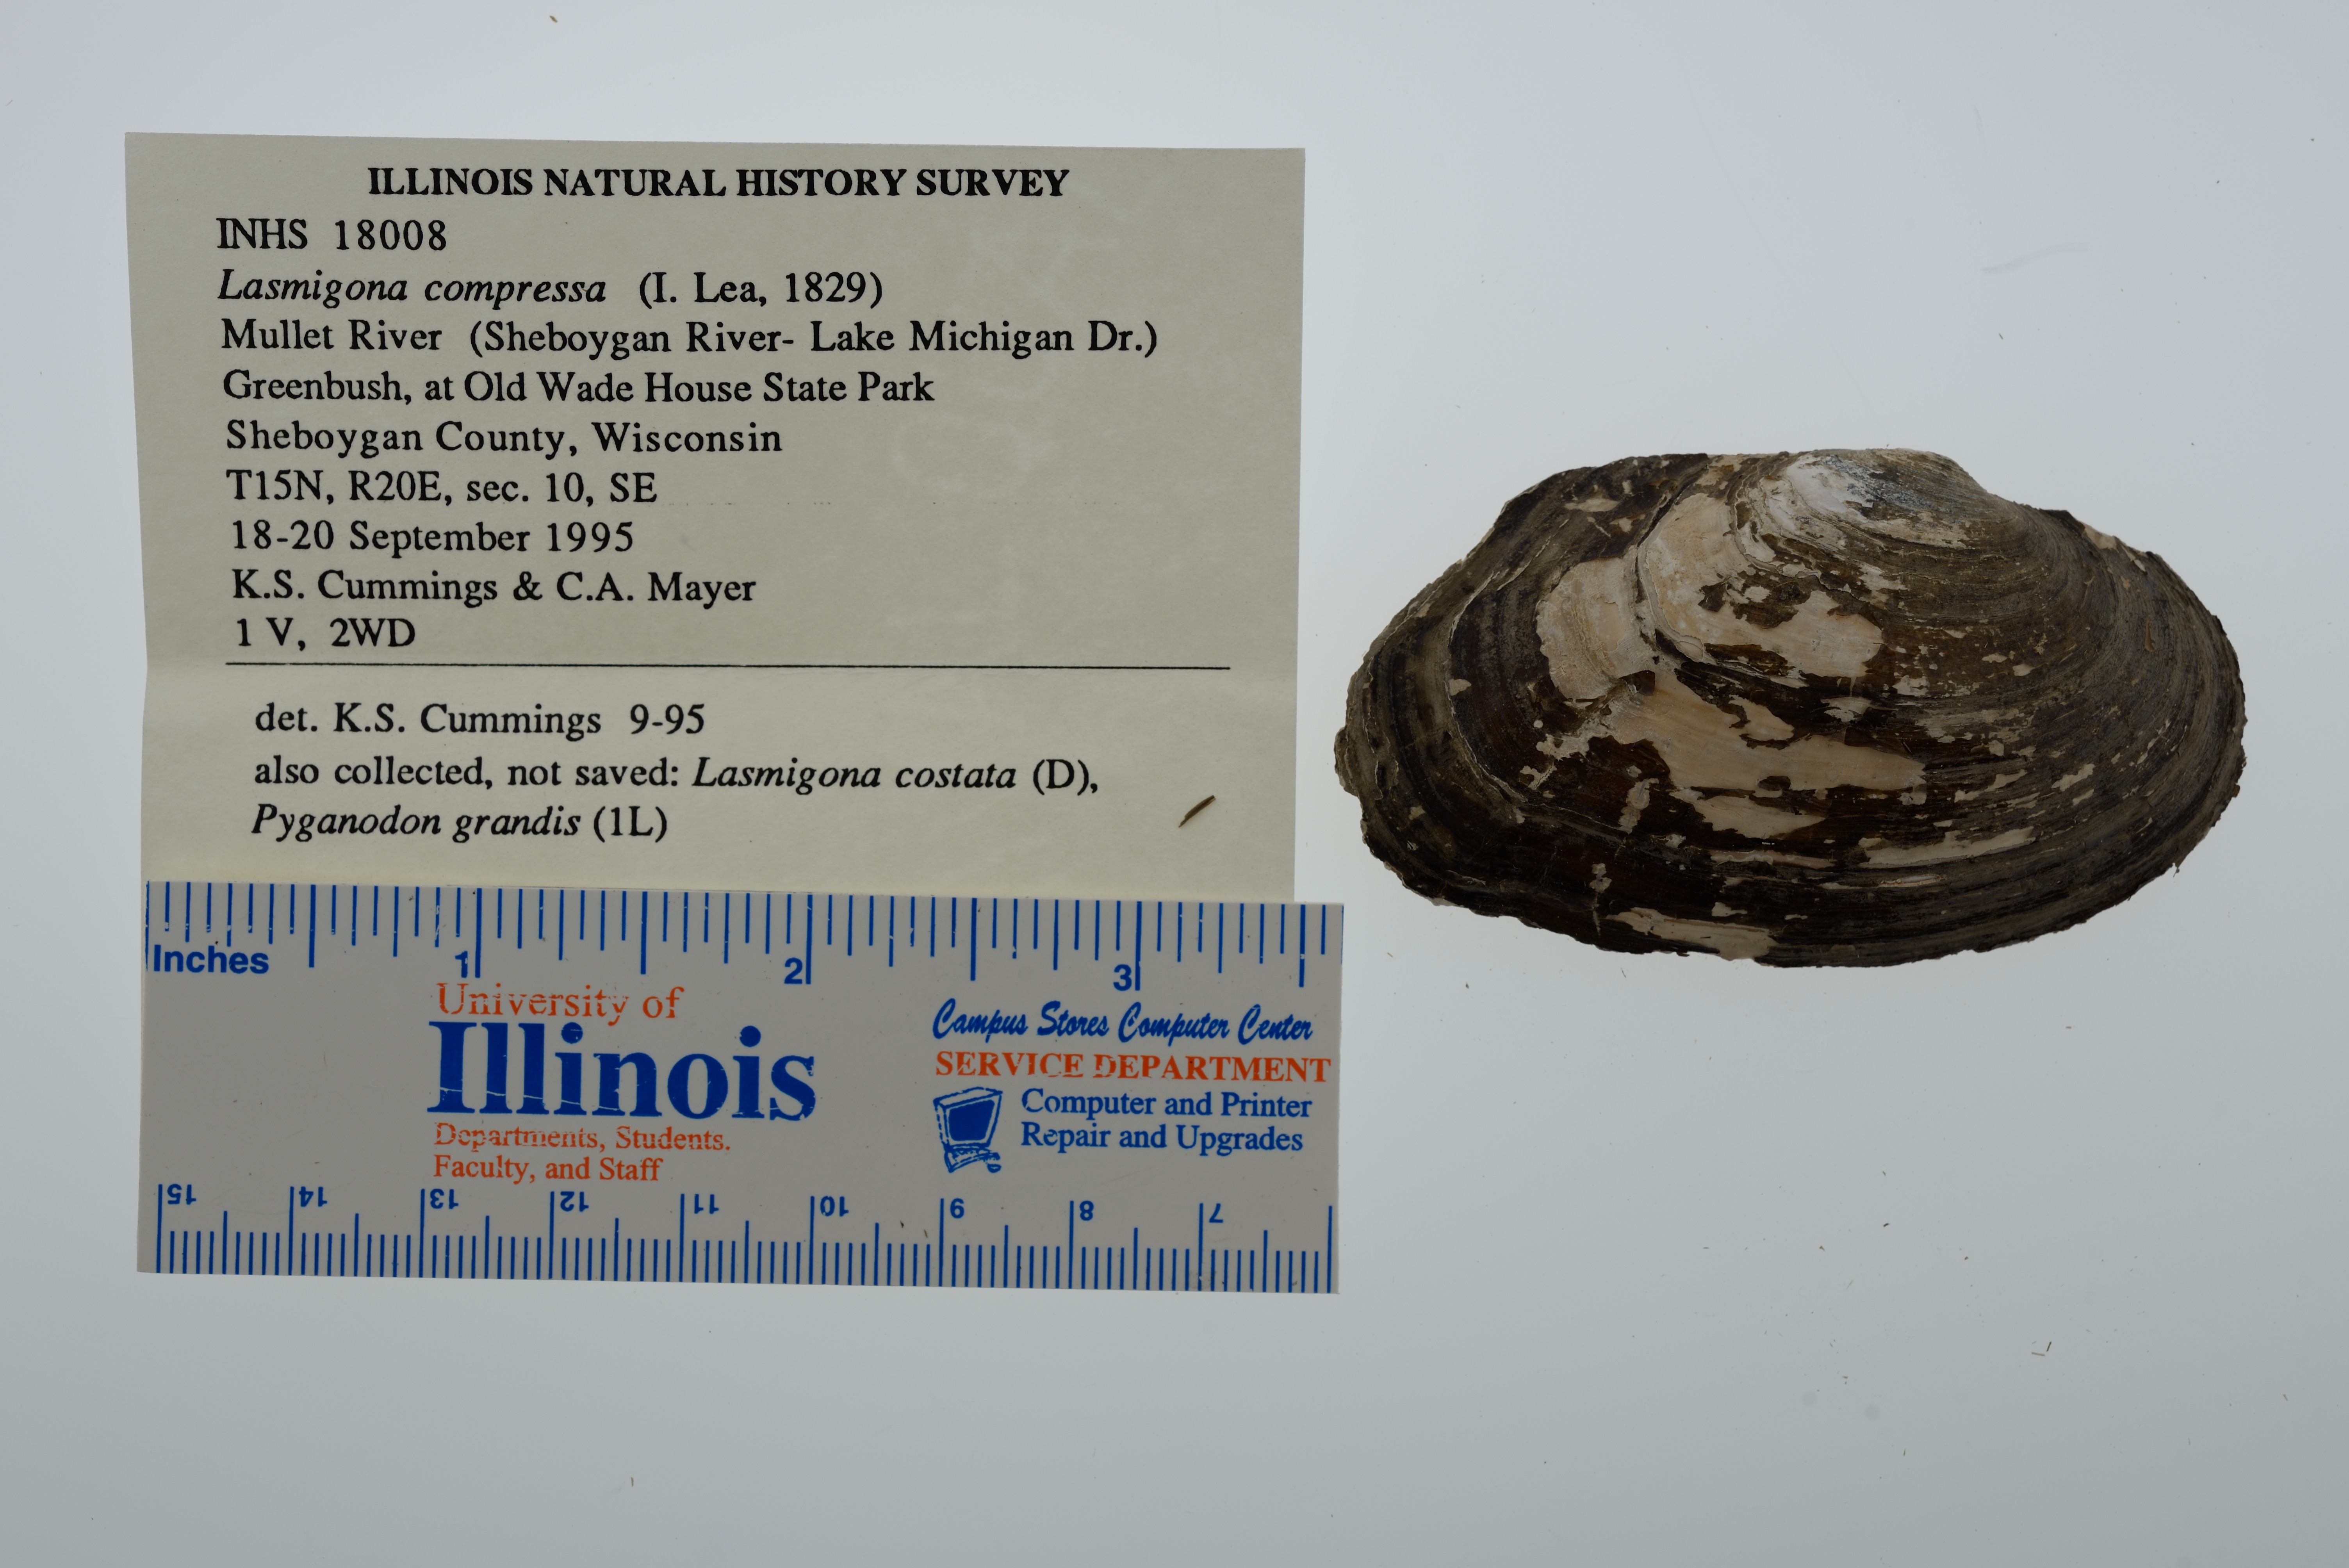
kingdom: Animalia
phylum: Mollusca
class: Bivalvia
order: Unionida
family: Unionidae
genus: Lasmigona
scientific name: Lasmigona compressa
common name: Creek heelsplitter
